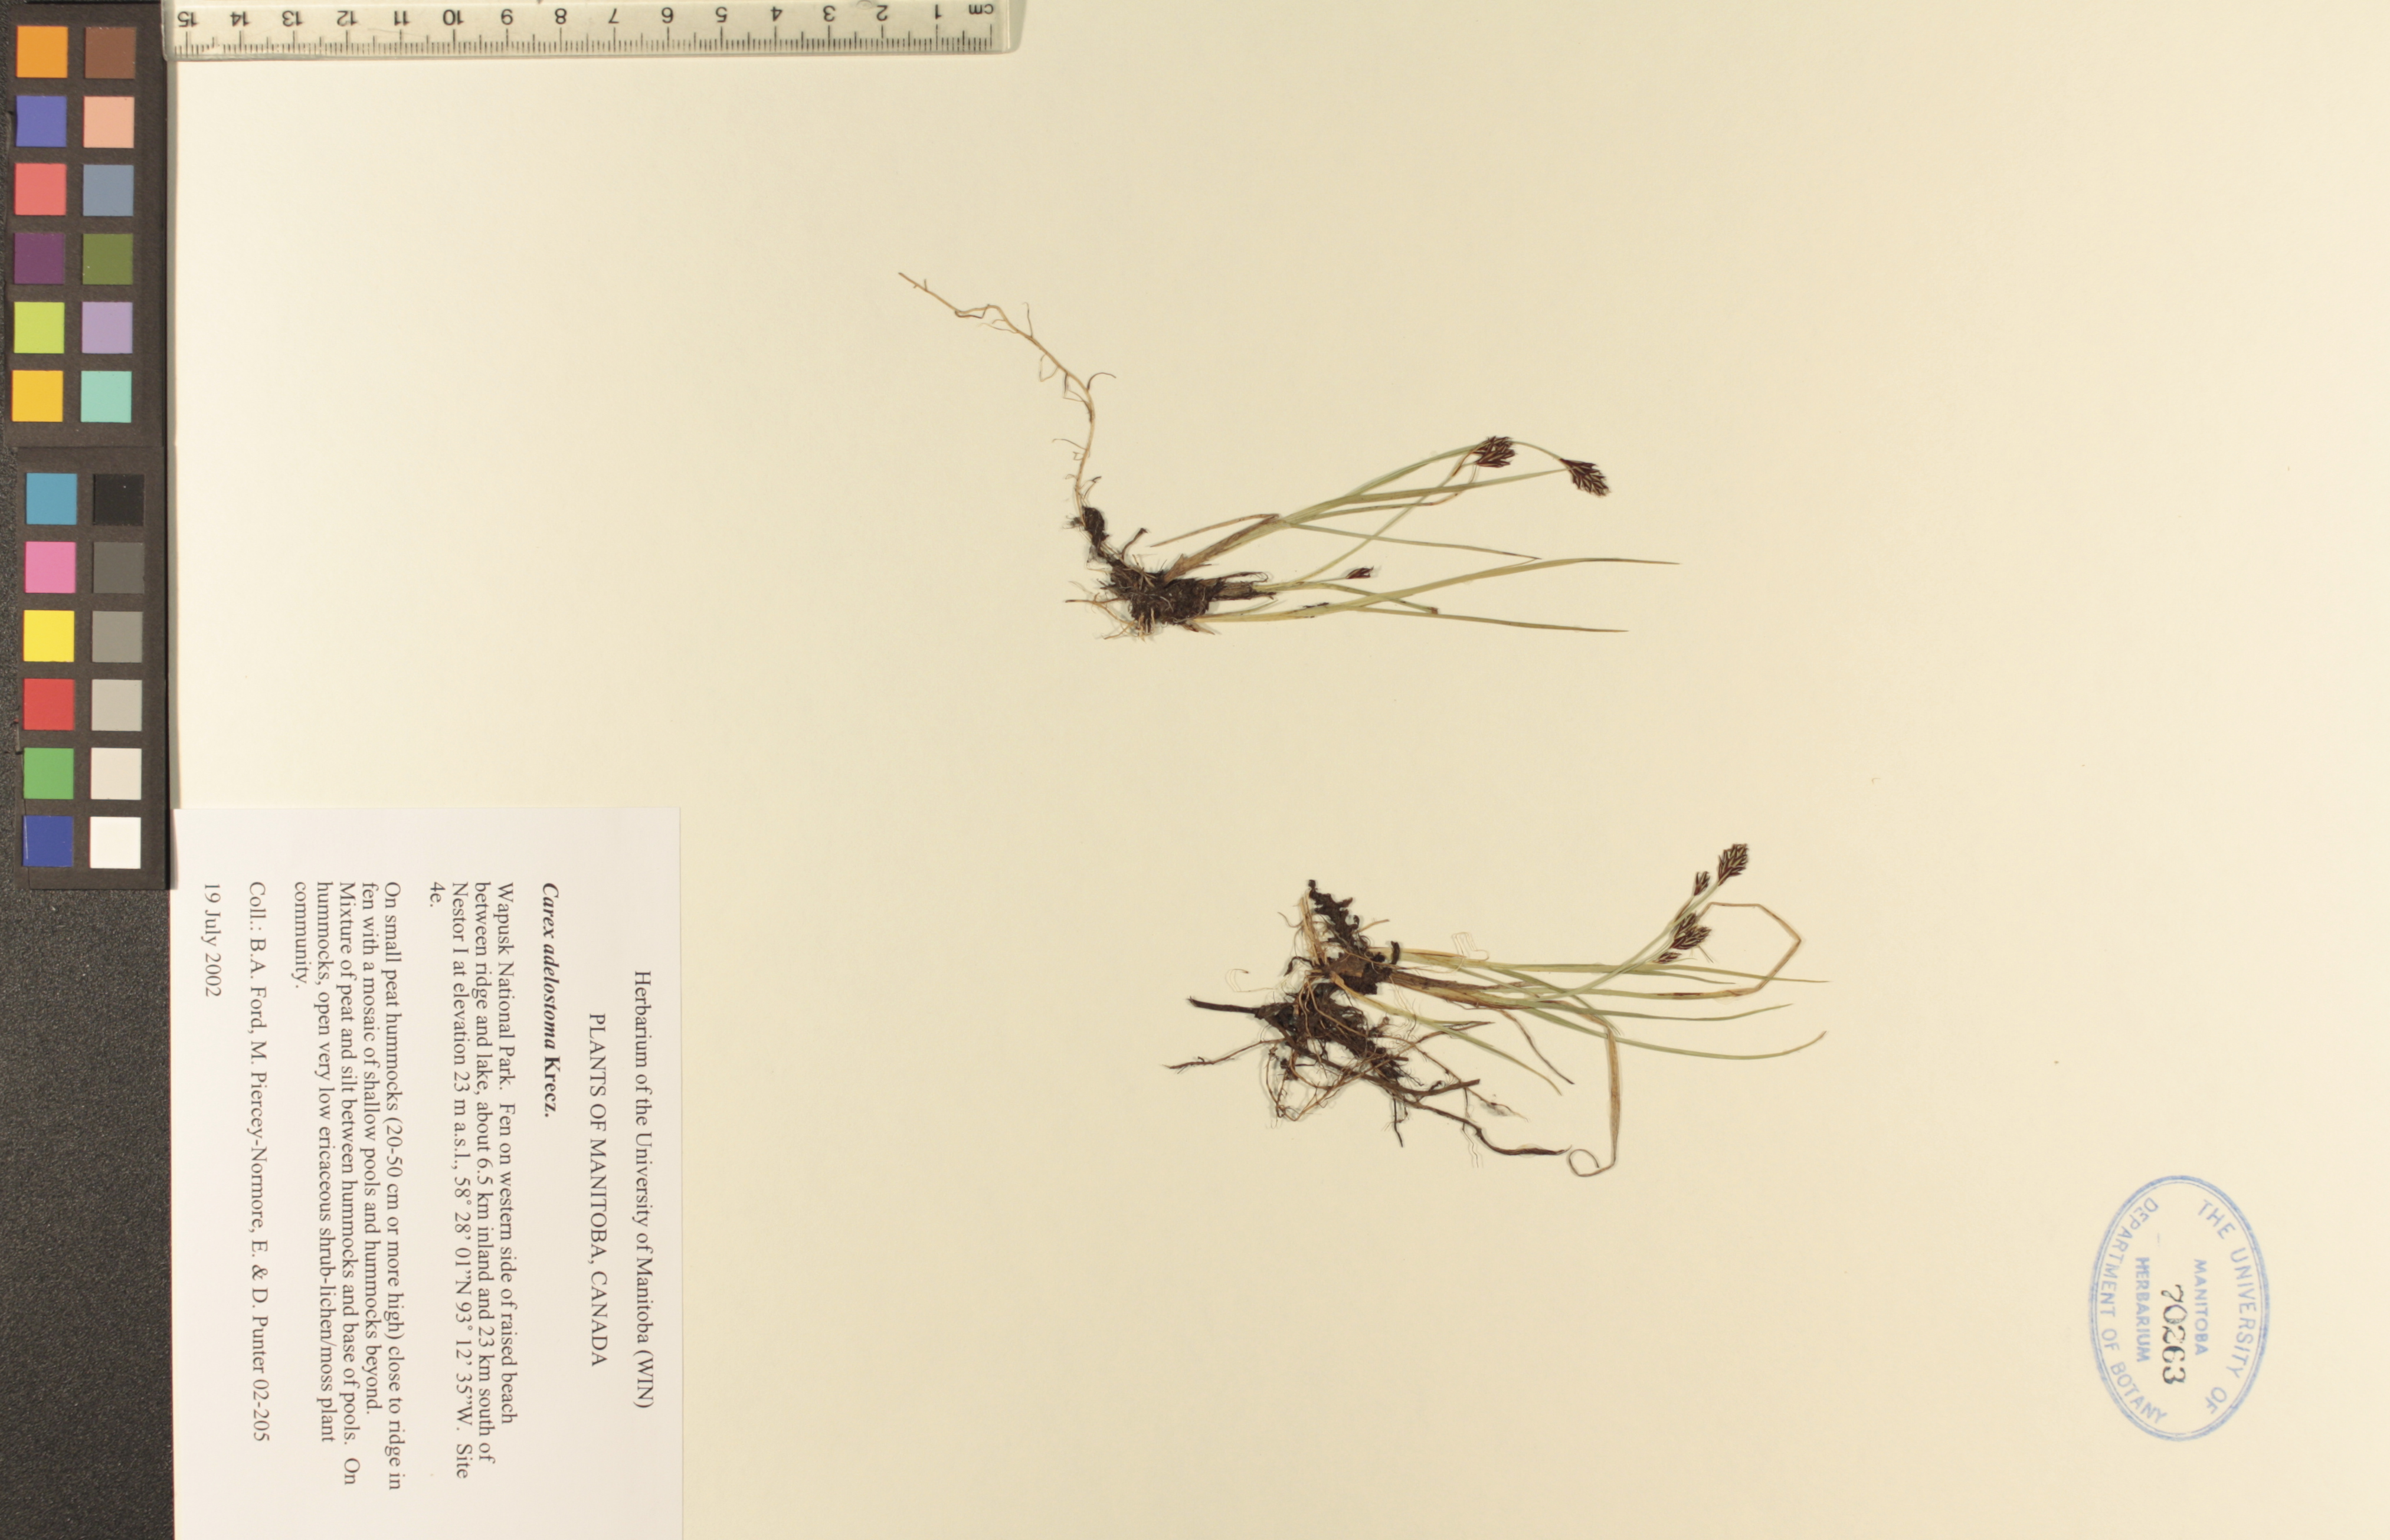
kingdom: Plantae
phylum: Tracheophyta
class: Liliopsida
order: Poales
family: Cyperaceae
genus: Carex
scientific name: Carex adelostoma
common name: Circumpolar sedge
